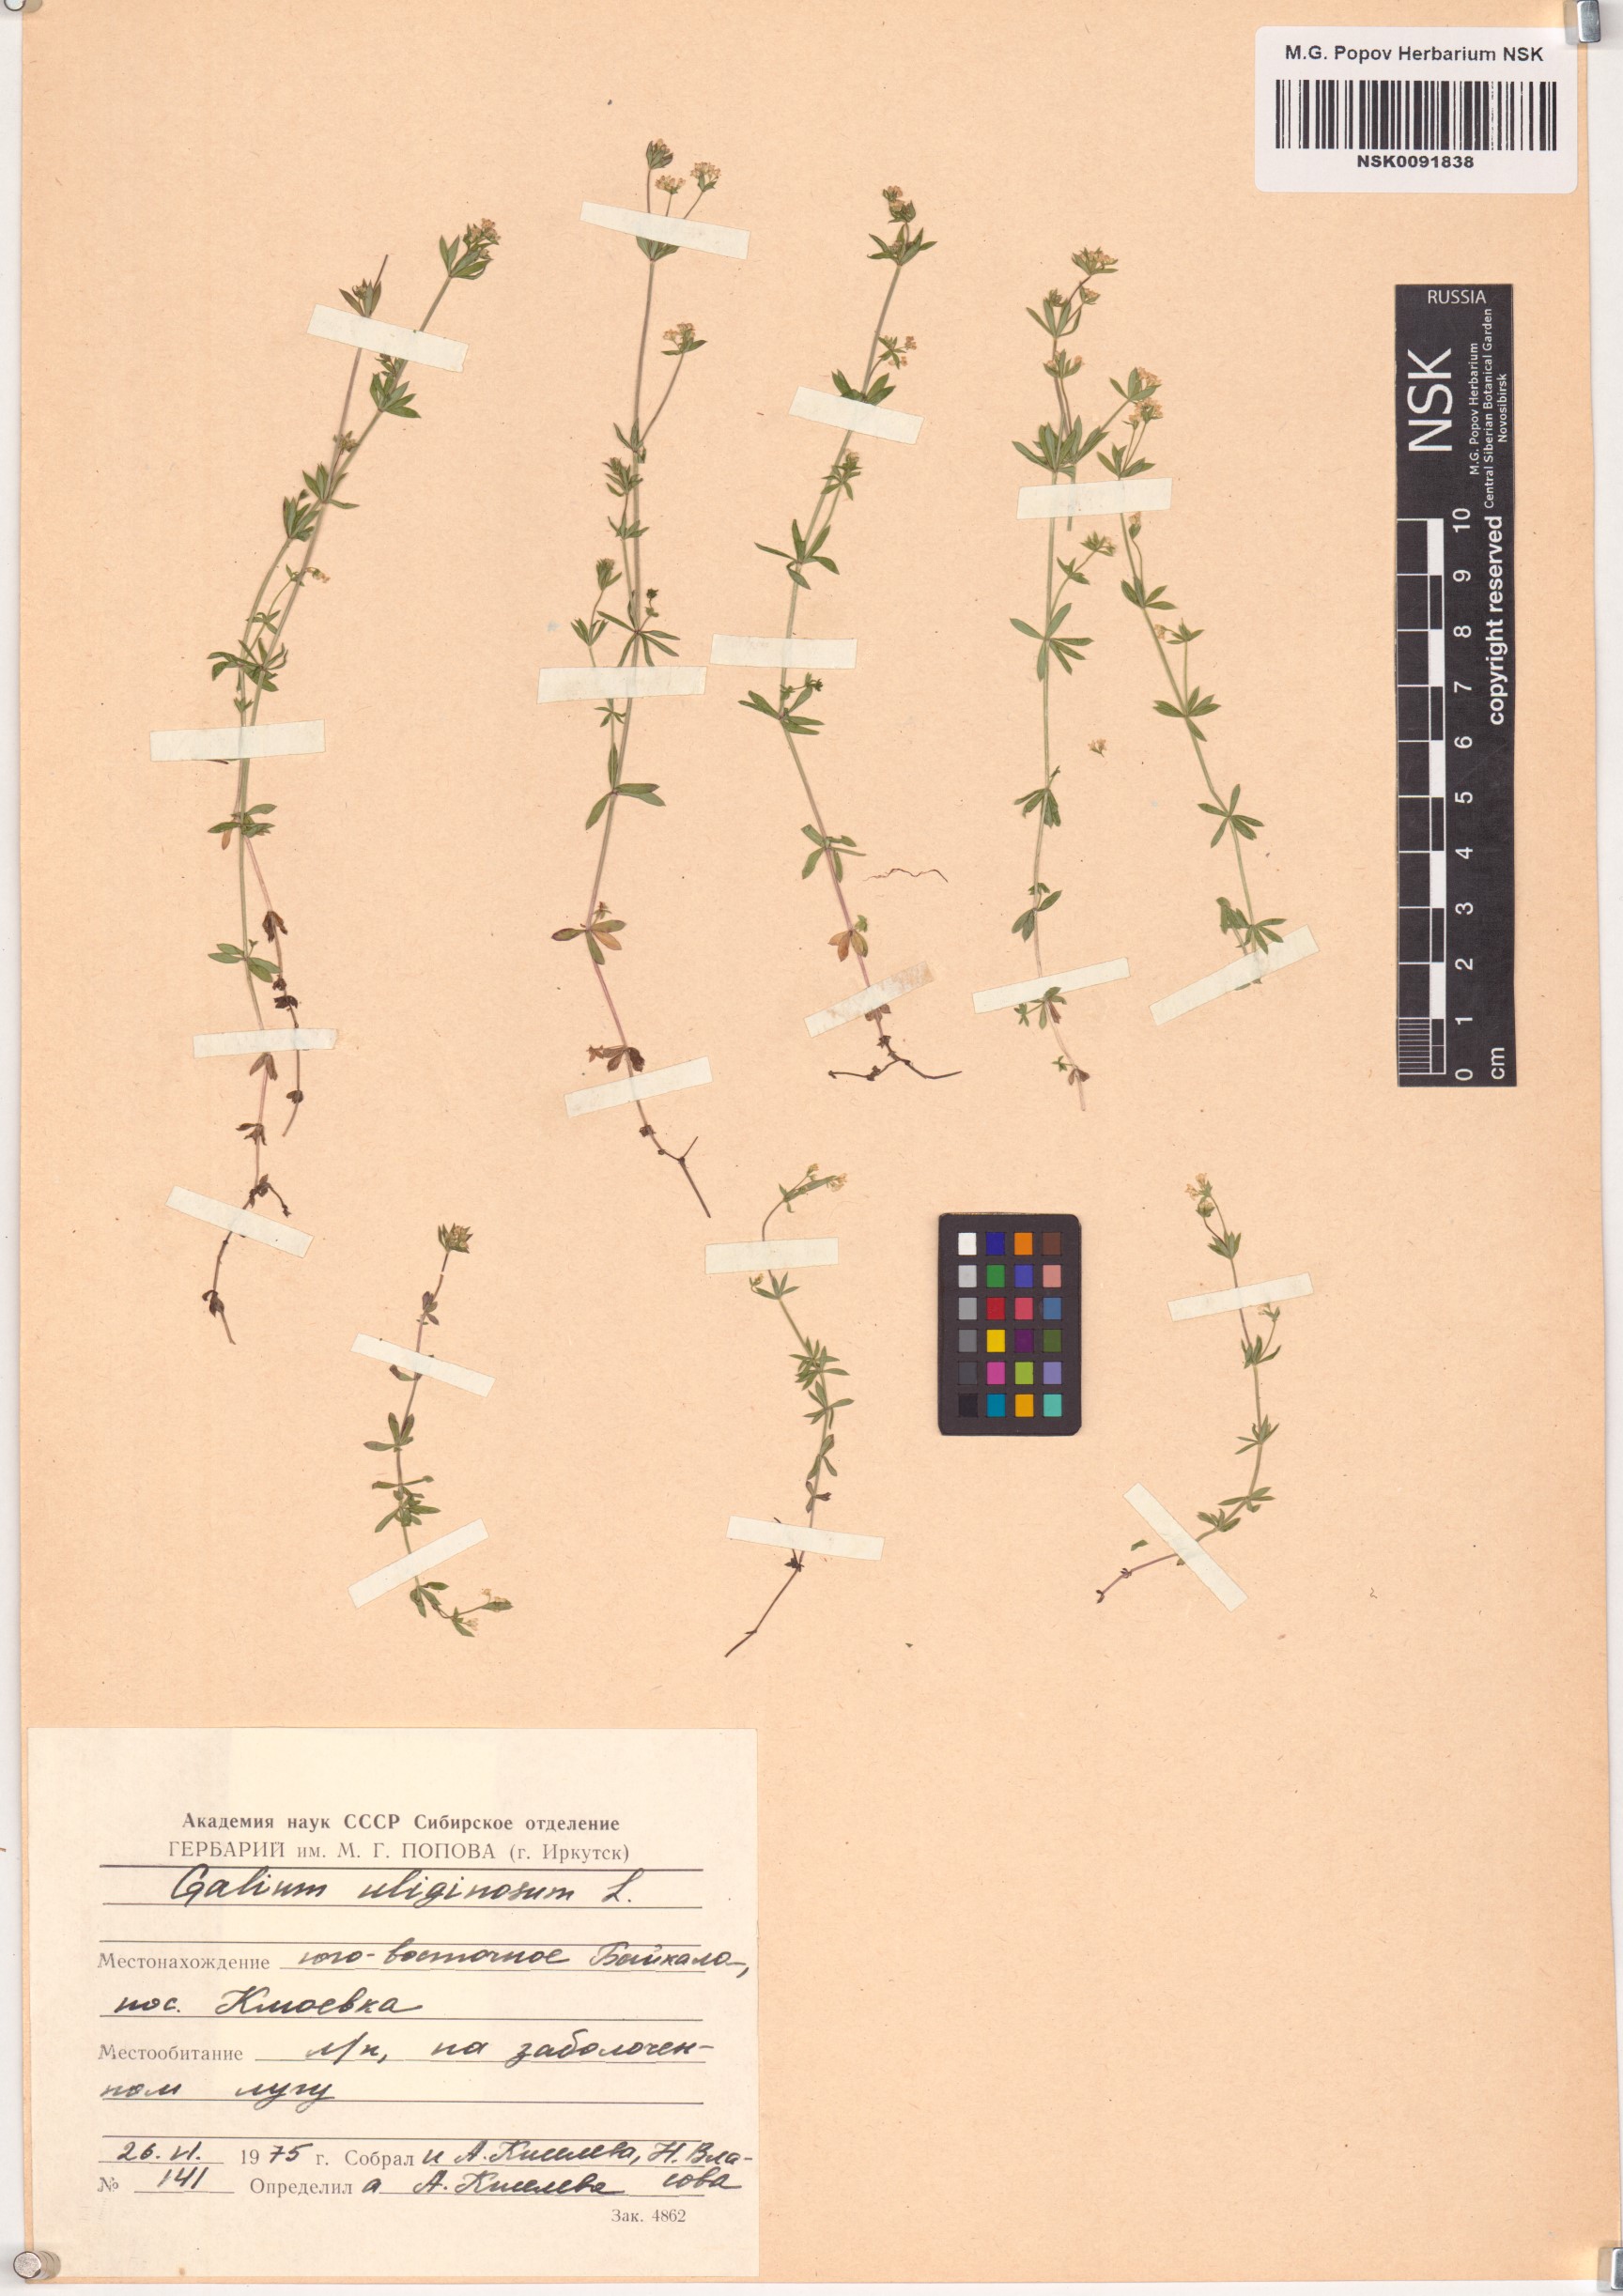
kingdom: Plantae
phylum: Tracheophyta
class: Magnoliopsida
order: Gentianales
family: Rubiaceae
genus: Galium
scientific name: Galium uliginosum
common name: Fen bedstraw
